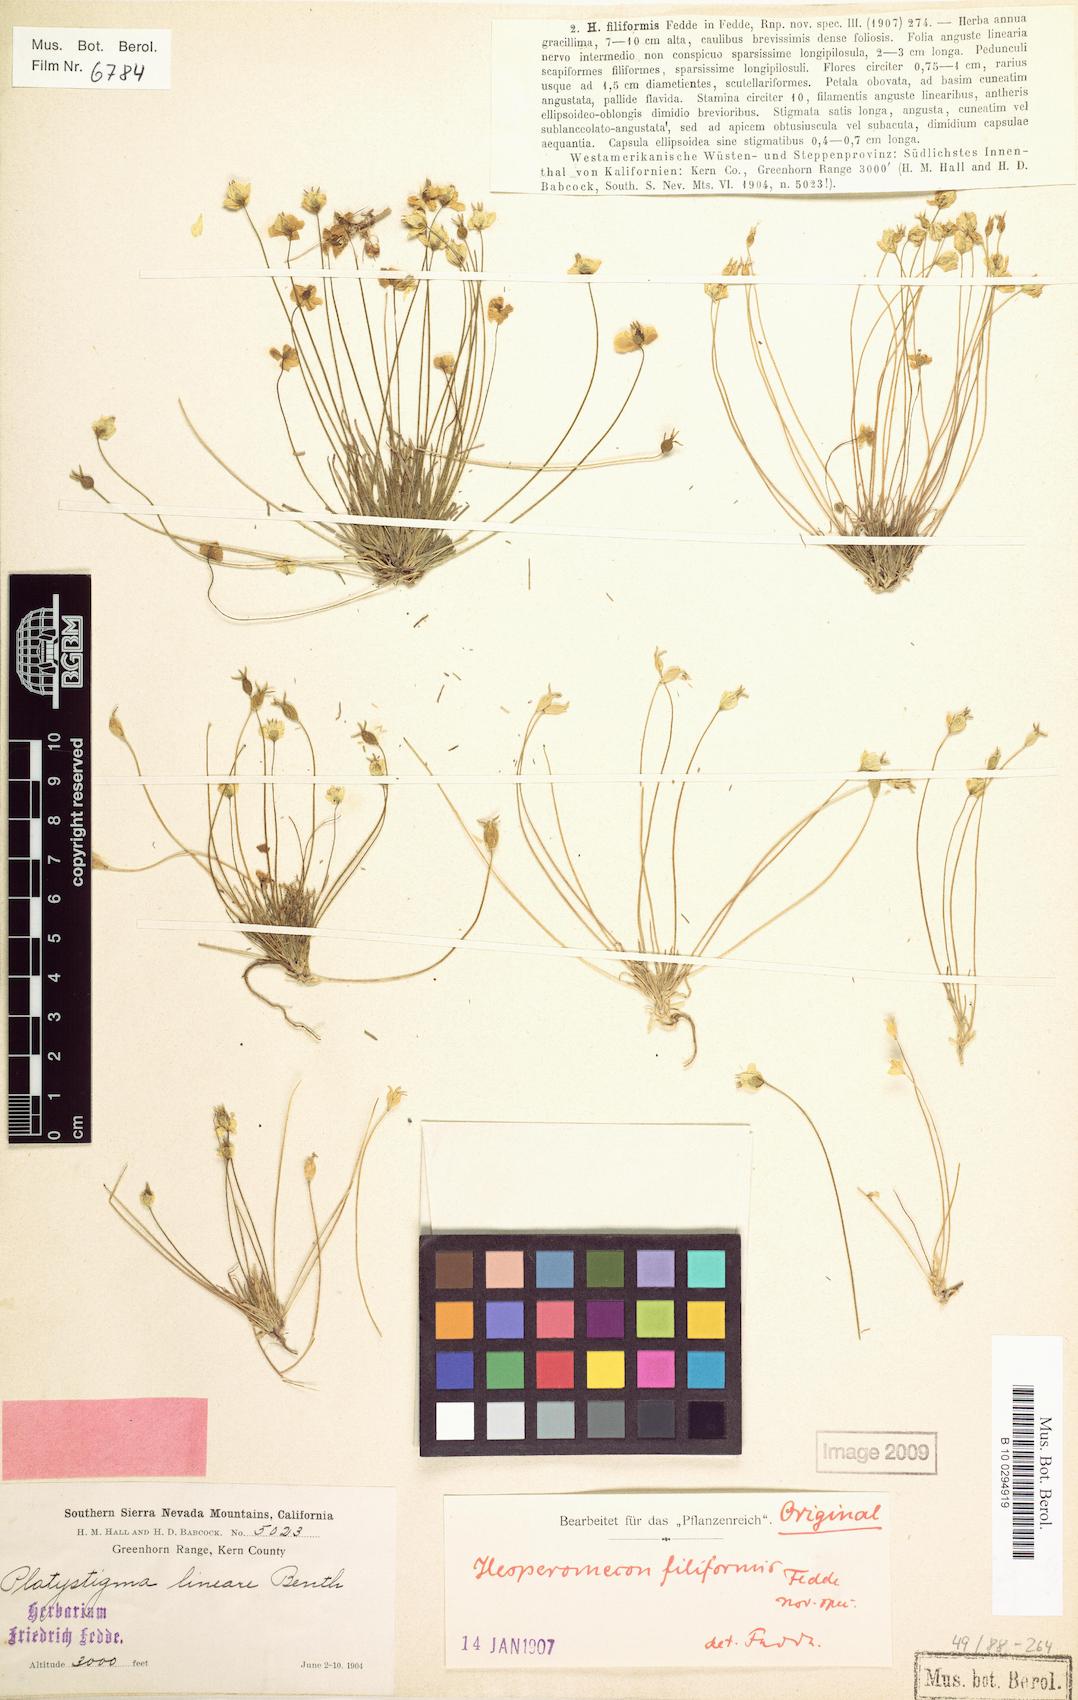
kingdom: Plantae
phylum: Tracheophyta
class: Magnoliopsida
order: Ranunculales
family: Papaveraceae
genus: Platystigma
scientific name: Platystigma lineare
